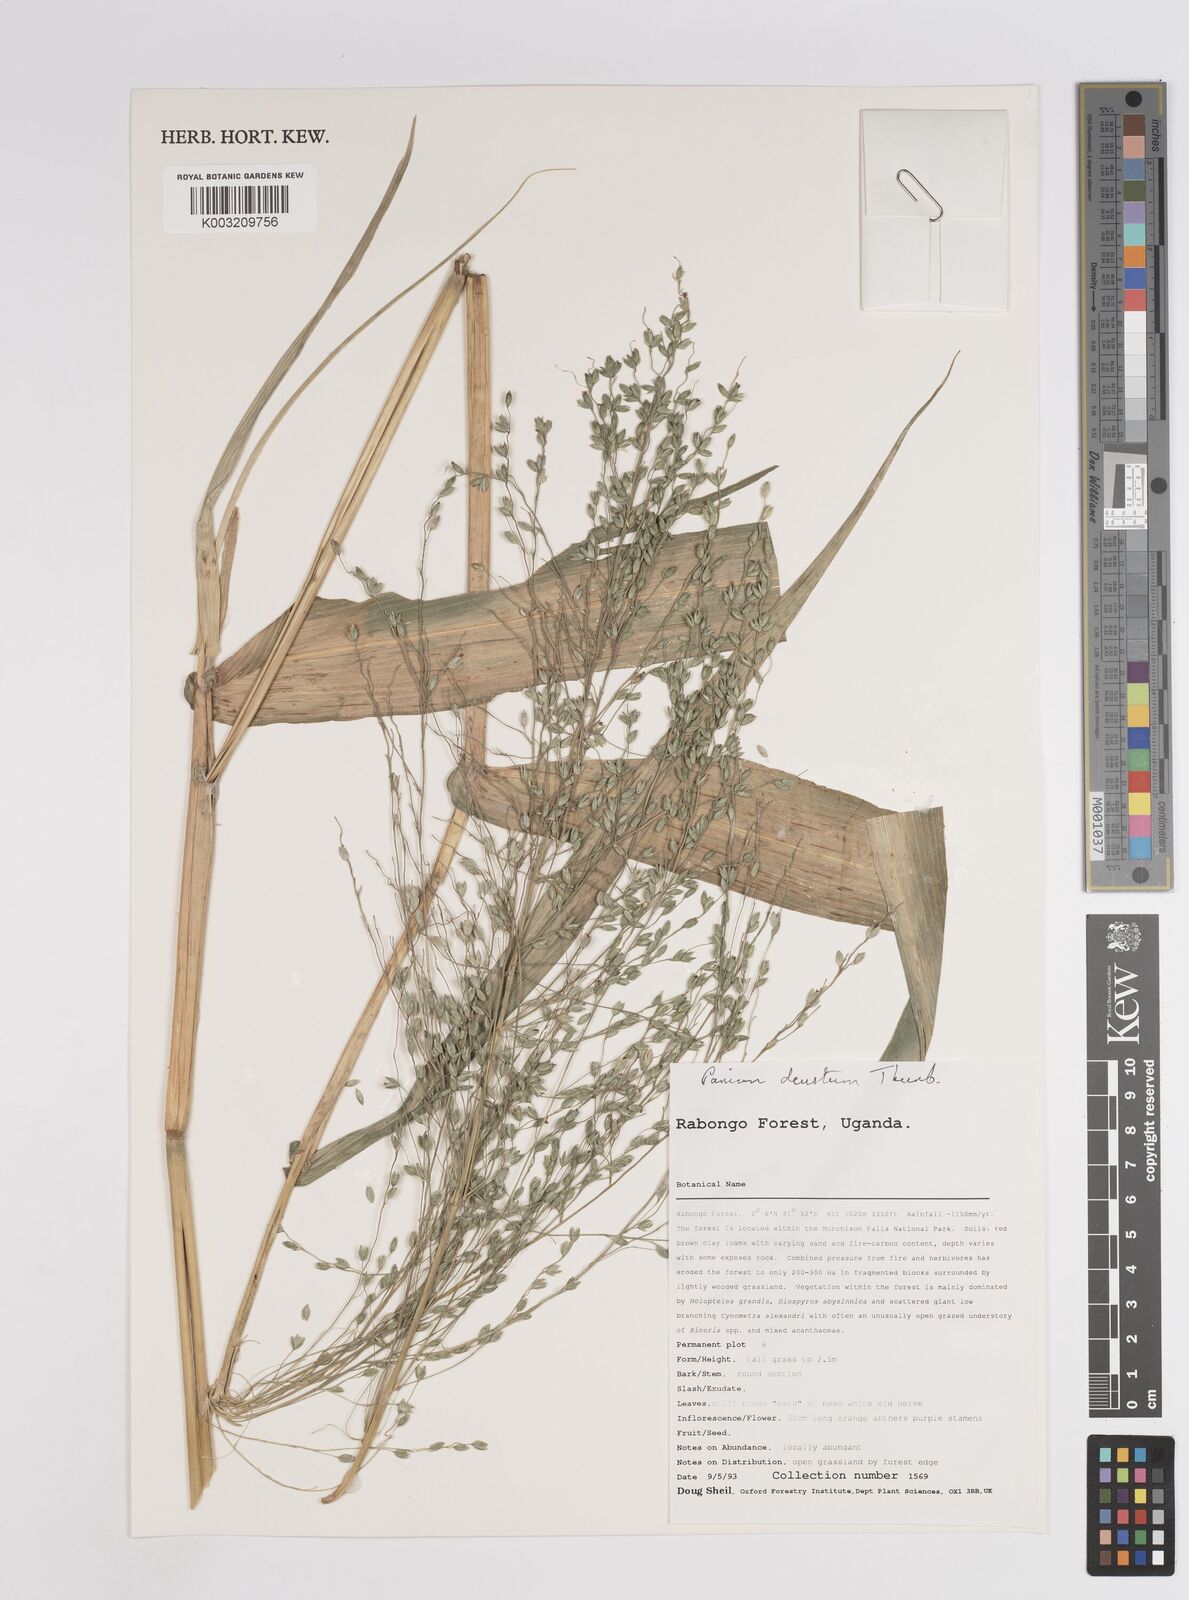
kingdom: Plantae
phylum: Tracheophyta
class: Liliopsida
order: Poales
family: Poaceae
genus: Panicum
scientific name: Panicum
